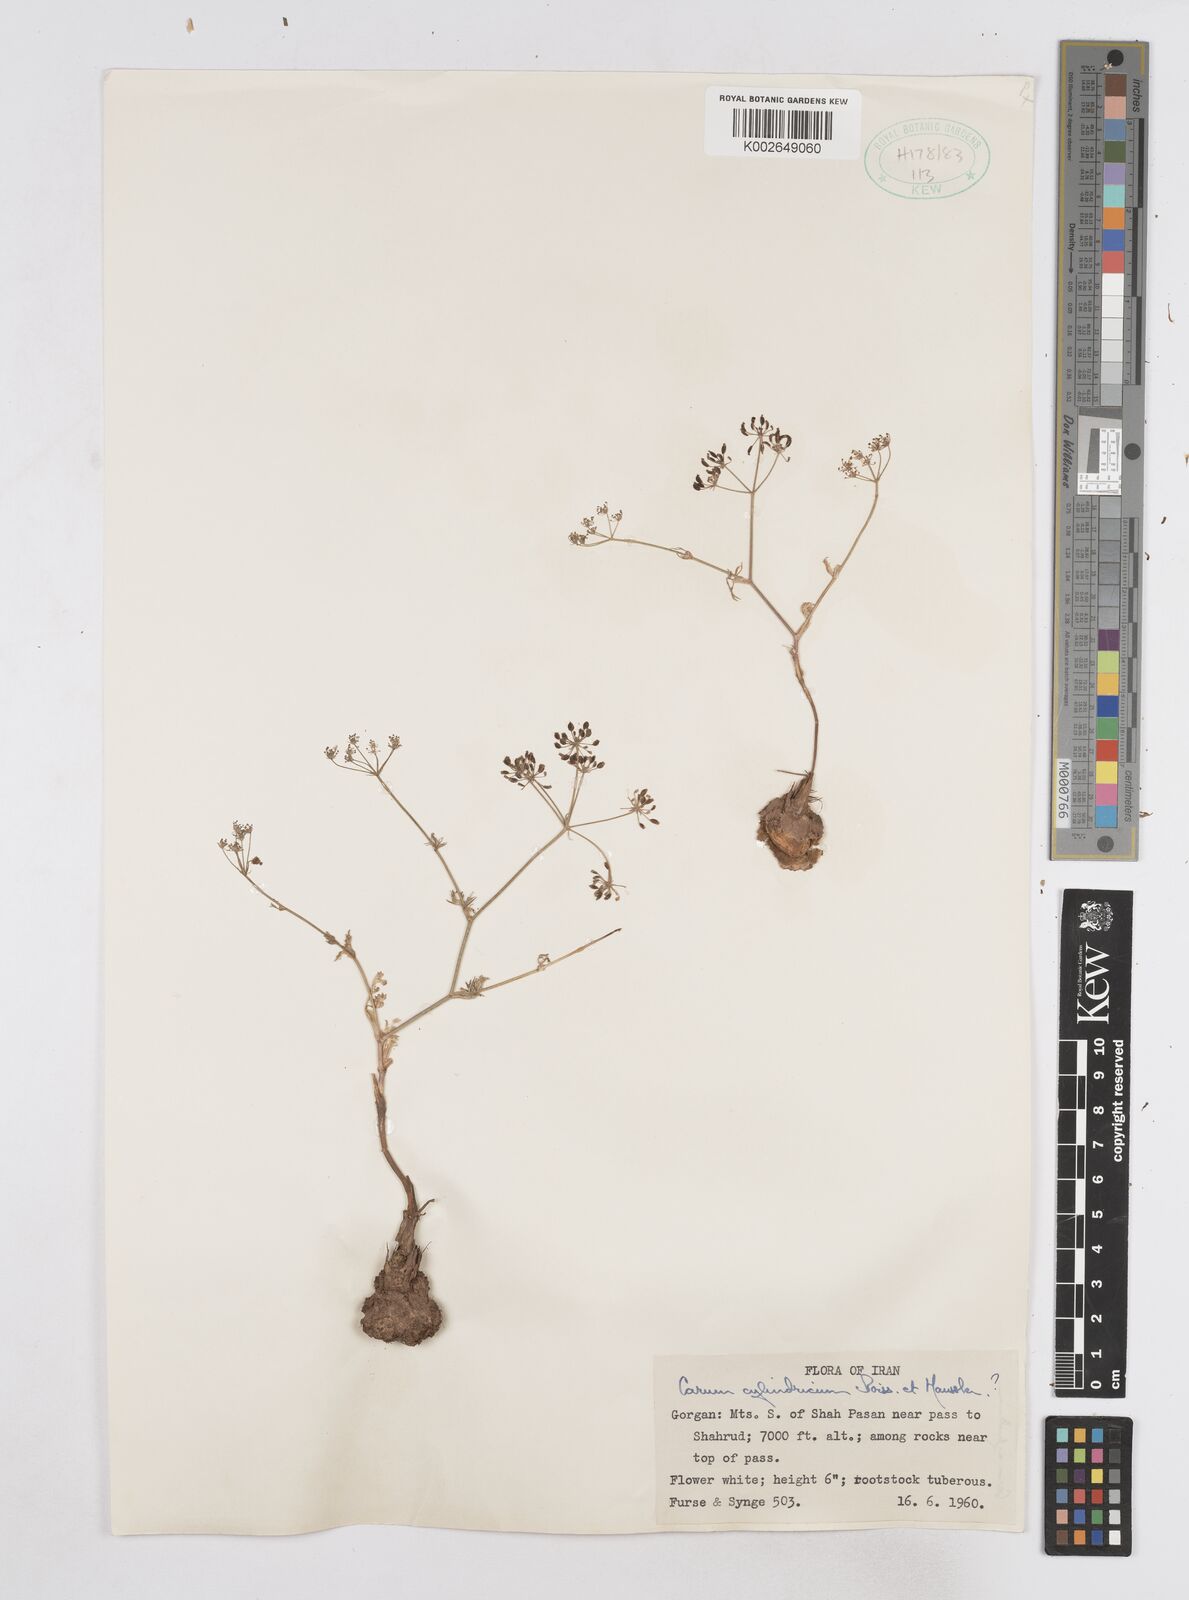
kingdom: Plantae
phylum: Tracheophyta
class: Magnoliopsida
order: Apiales
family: Apiaceae
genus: Elwendia
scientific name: Elwendia cylindrica
